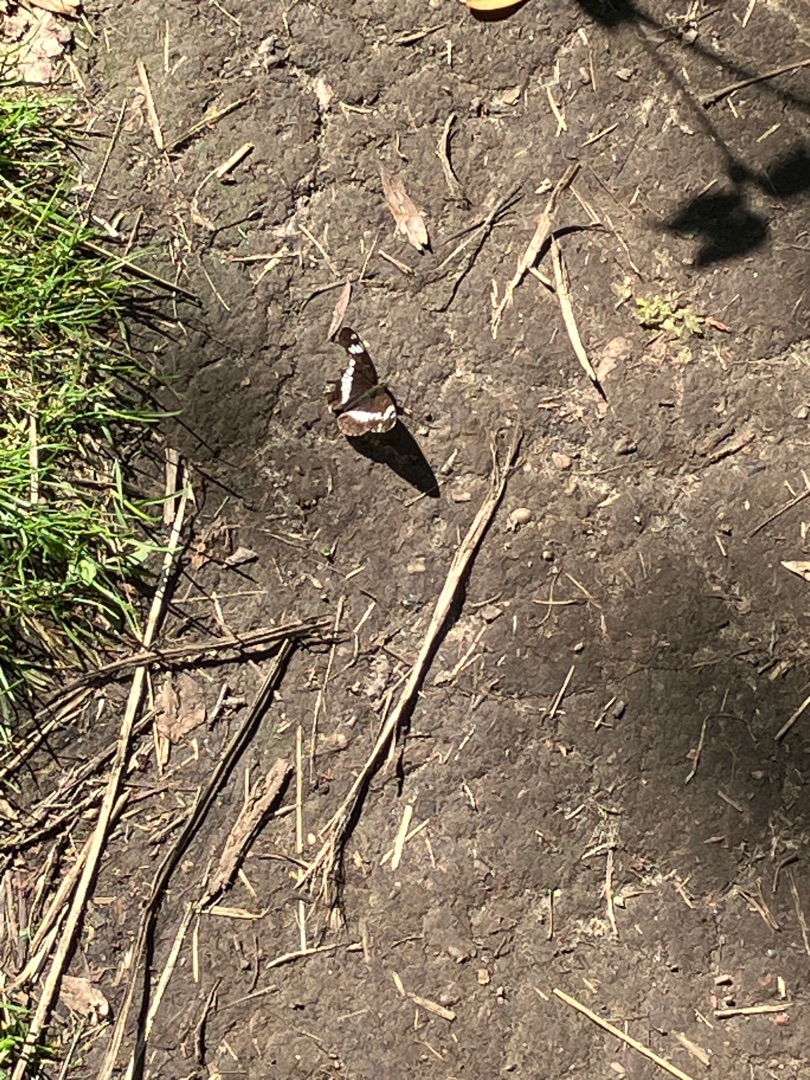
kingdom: Animalia
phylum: Arthropoda
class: Insecta
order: Lepidoptera
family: Nymphalidae
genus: Ladoga
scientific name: Ladoga camilla
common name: Hvid admiral
